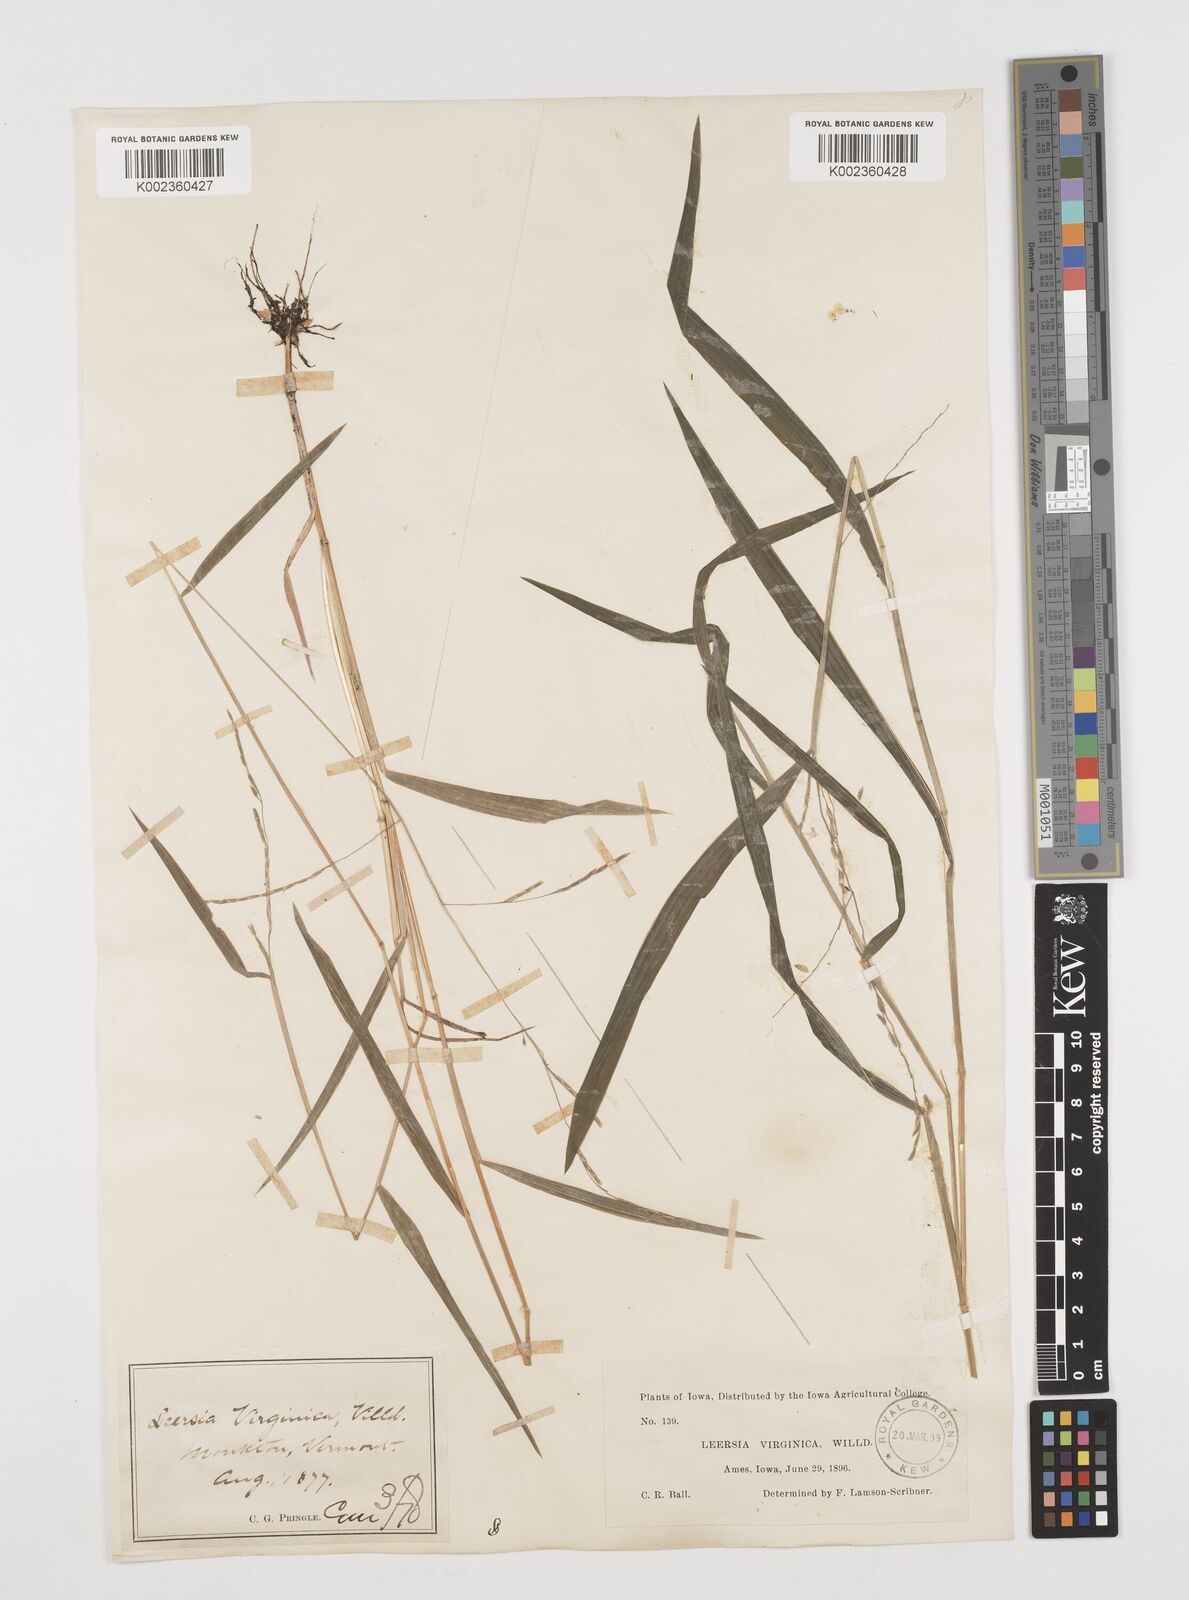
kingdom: Plantae
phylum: Tracheophyta
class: Liliopsida
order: Poales
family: Poaceae
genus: Leersia
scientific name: Leersia virginica
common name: White cutgrass
